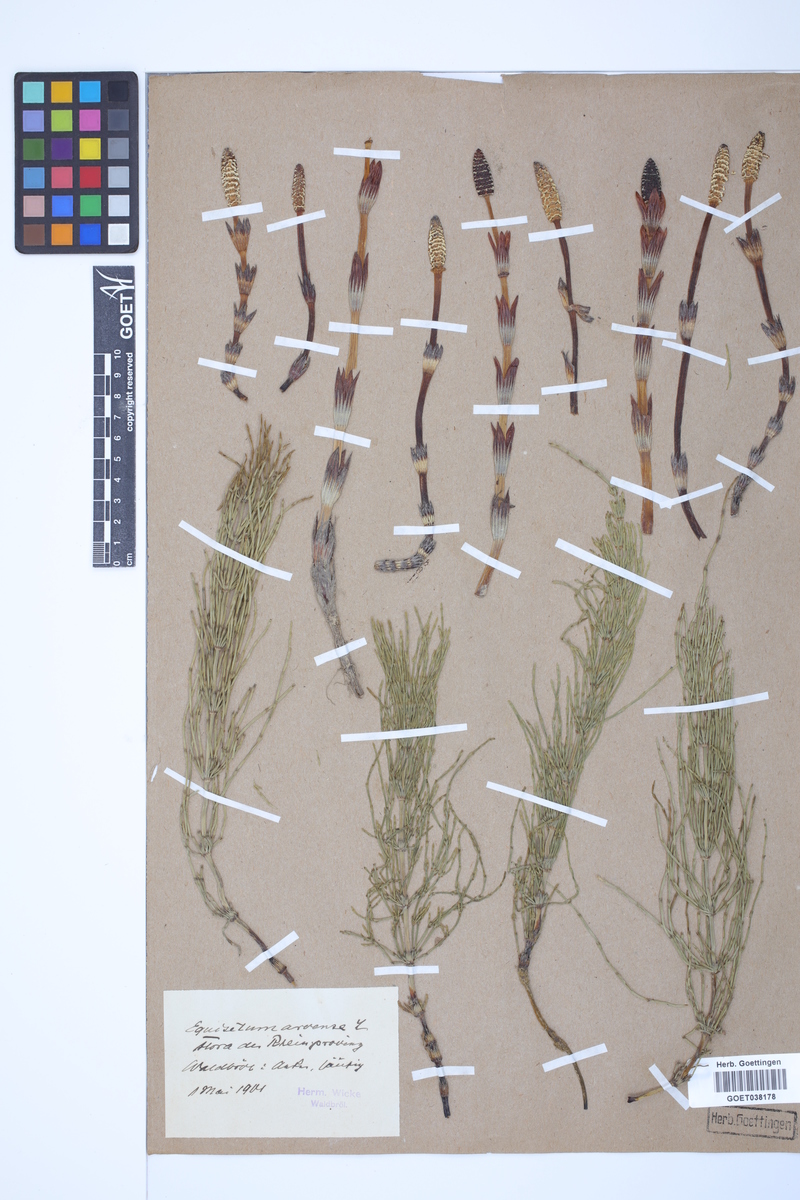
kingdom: Plantae
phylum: Tracheophyta
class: Polypodiopsida
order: Equisetales
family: Equisetaceae
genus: Equisetum
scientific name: Equisetum arvense
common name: Field horsetail
